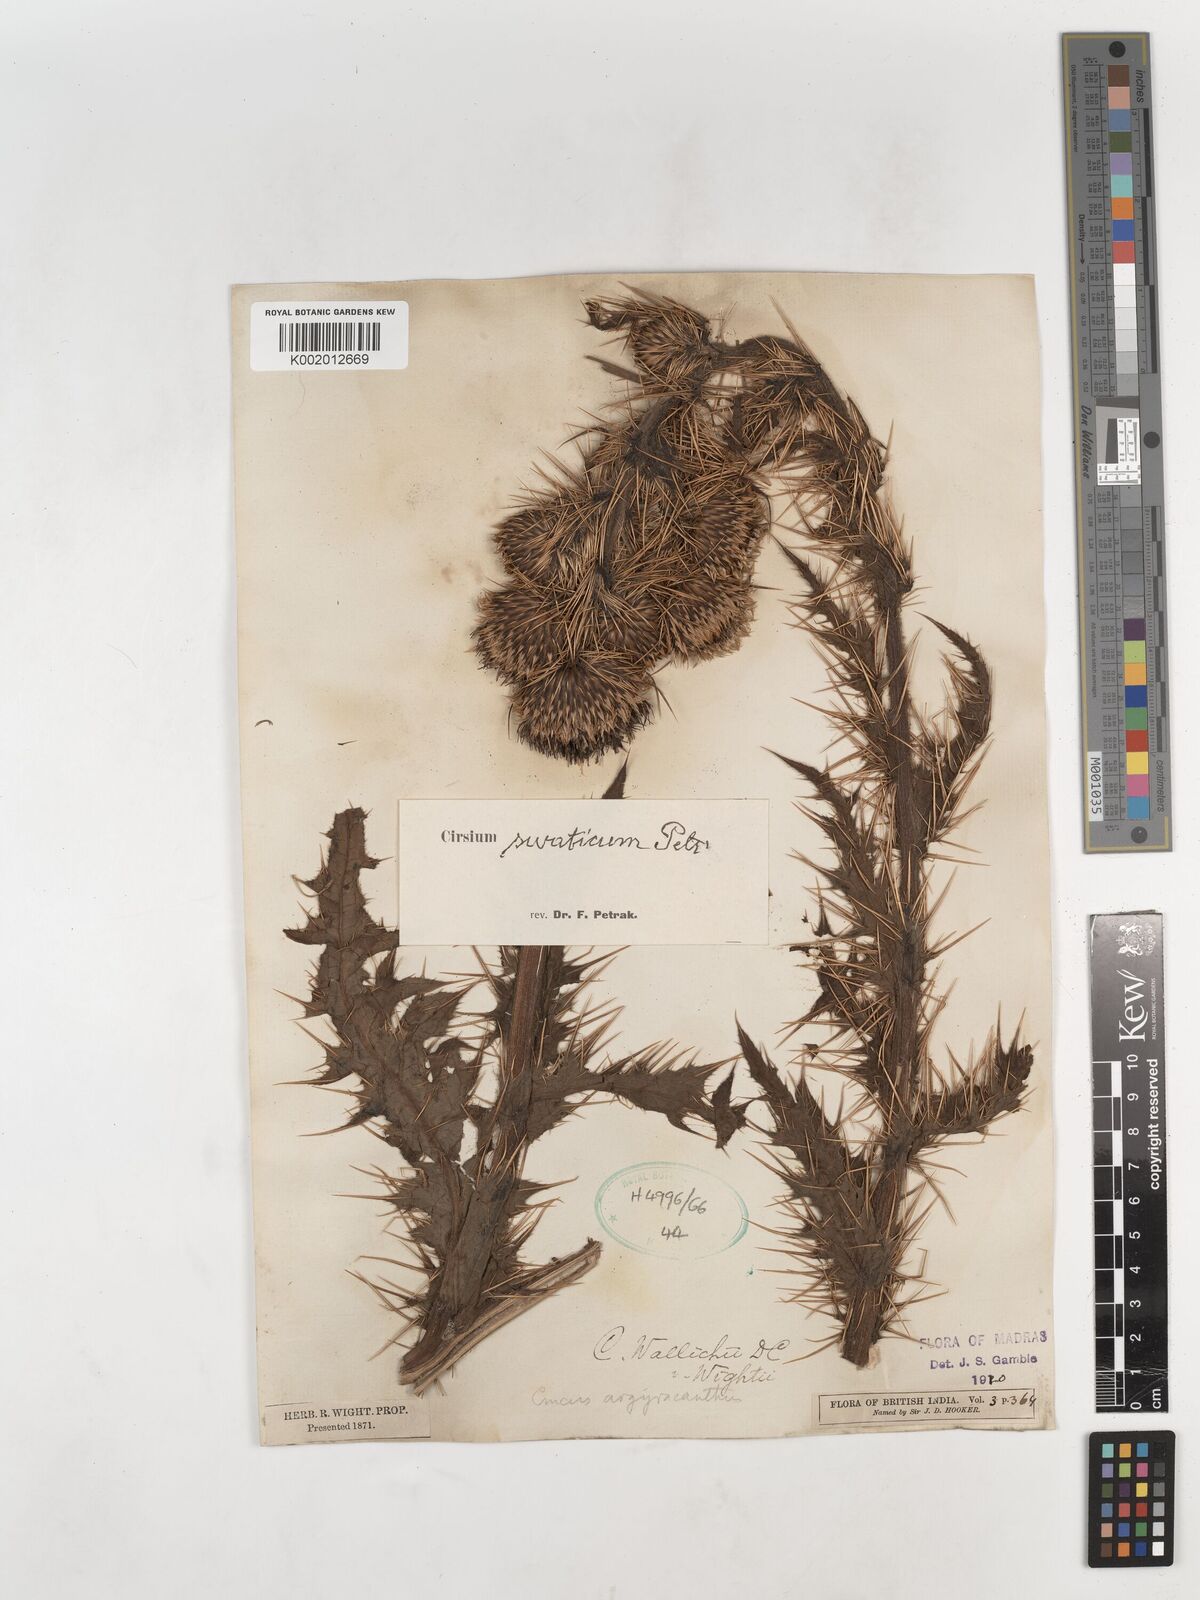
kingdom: Plantae
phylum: Tracheophyta
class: Magnoliopsida
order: Asterales
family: Asteraceae
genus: Cirsium
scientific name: Cirsium swaticum
